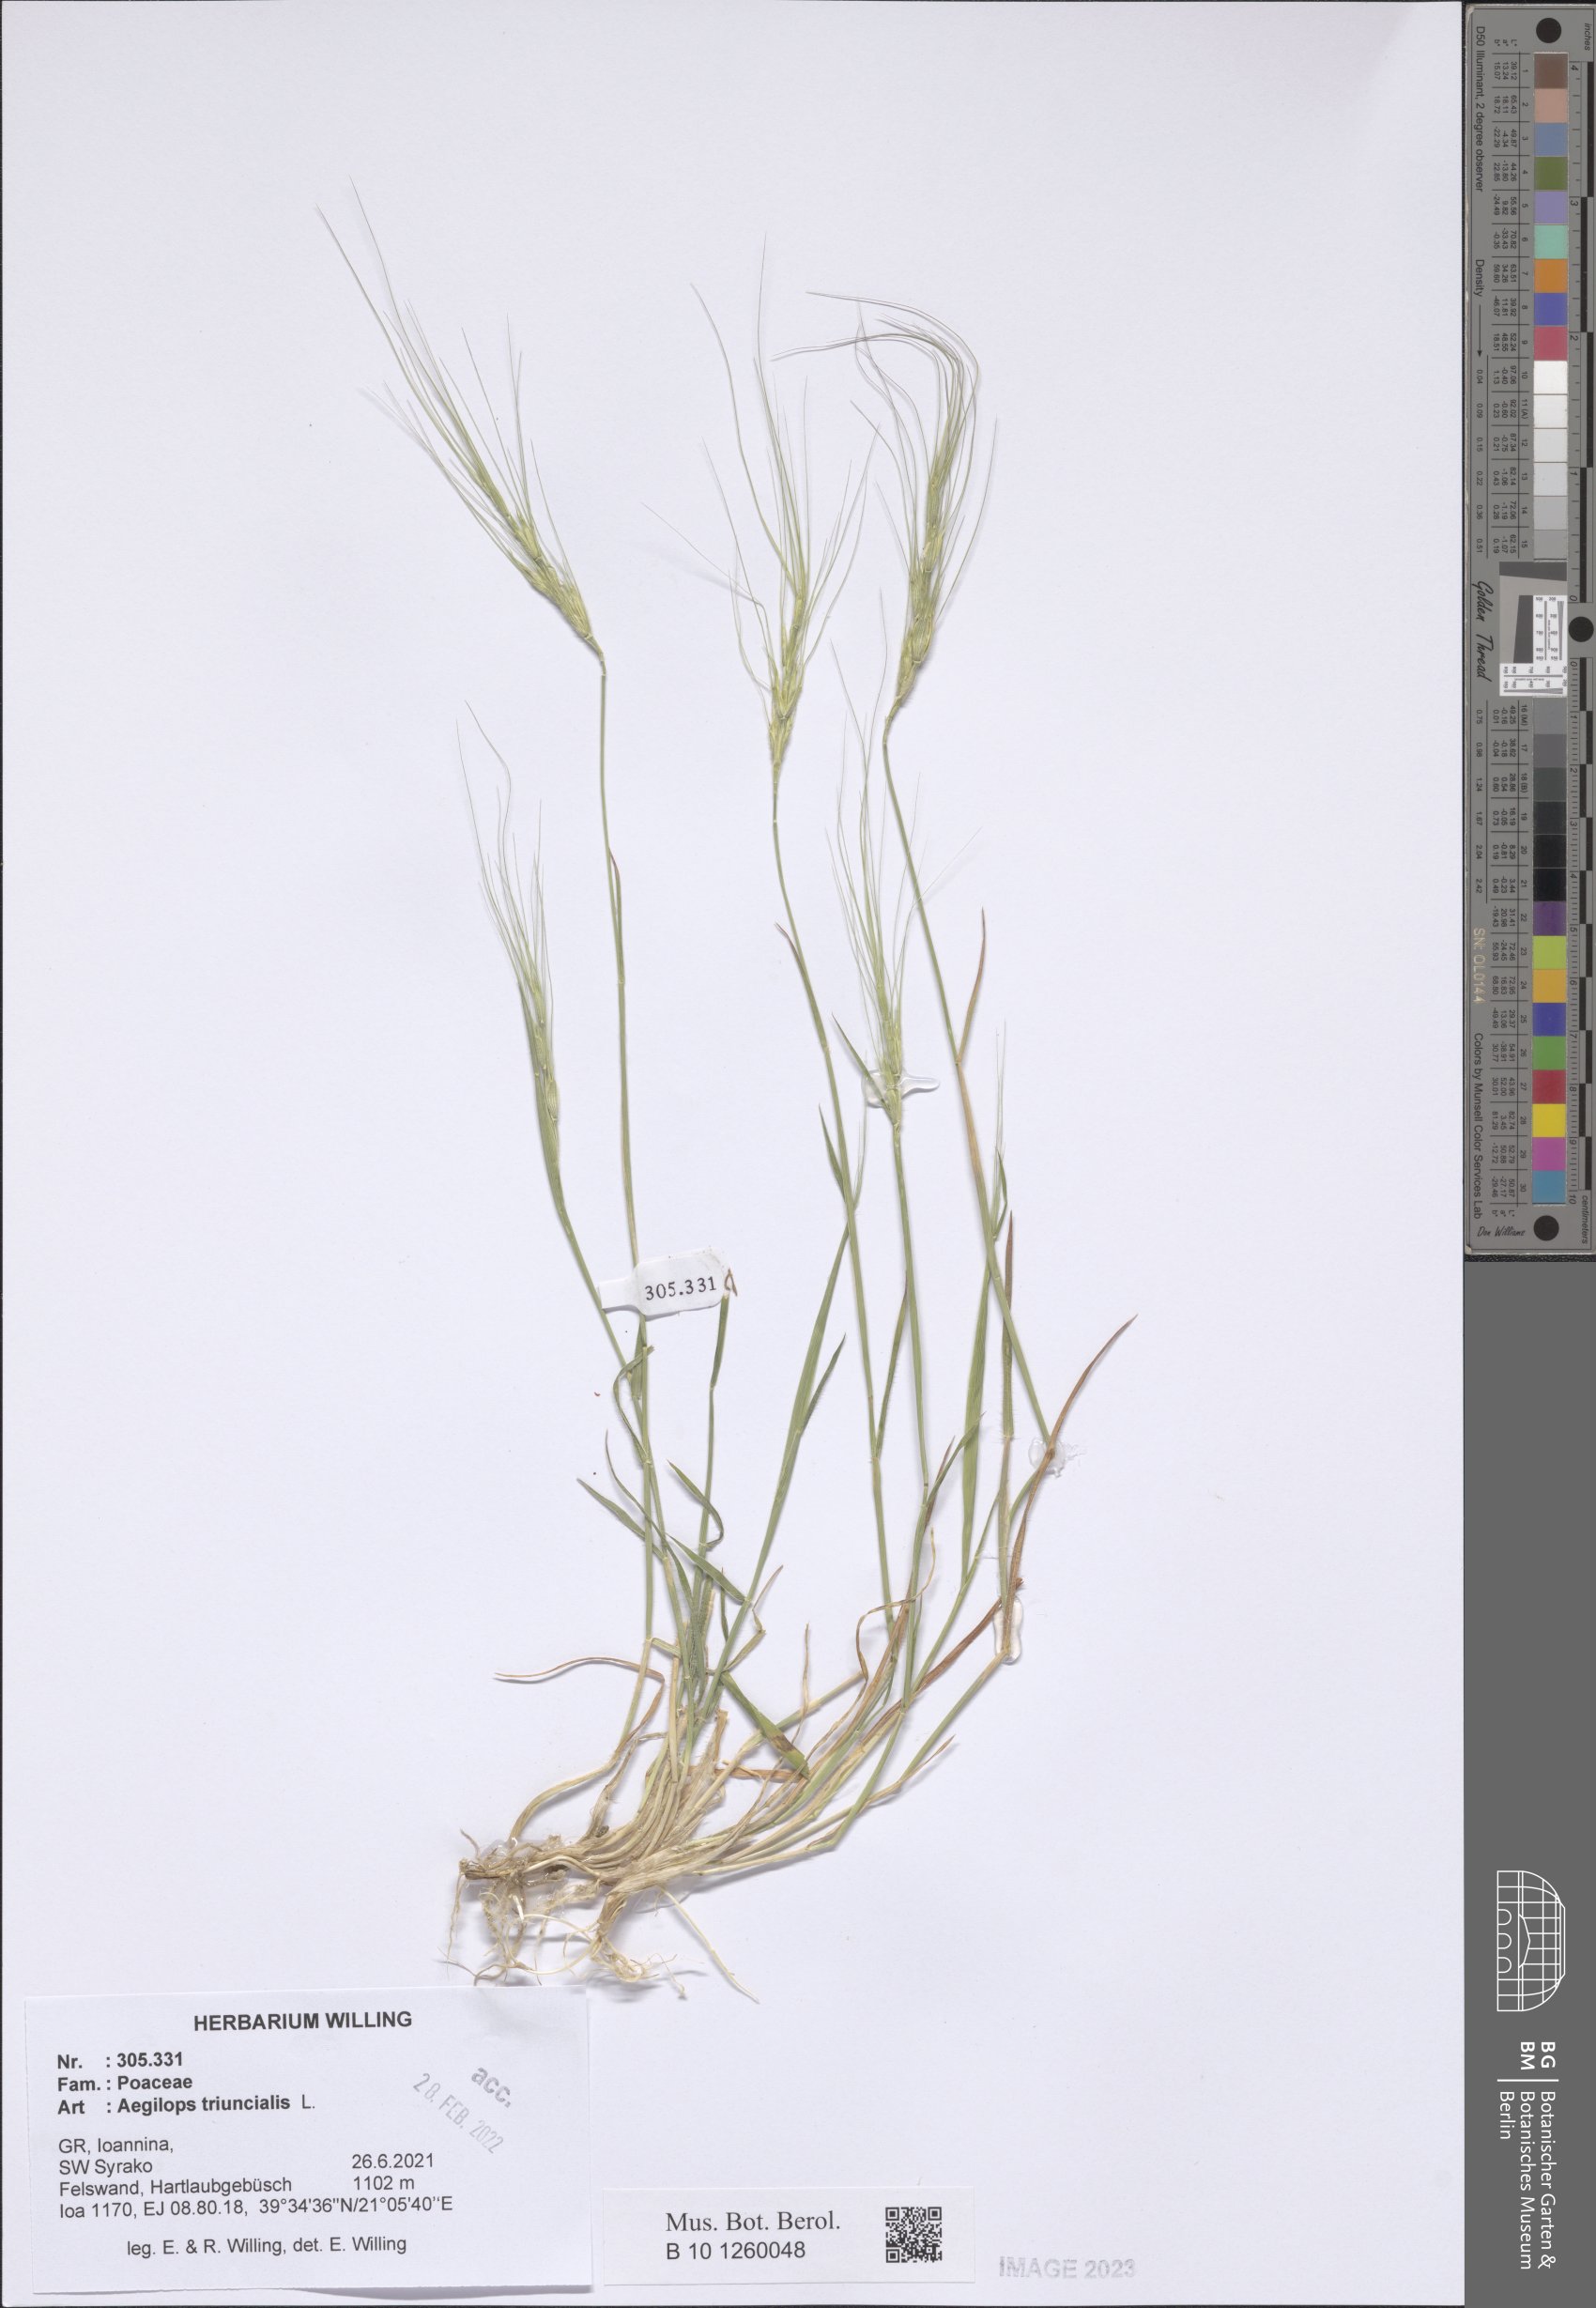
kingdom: Plantae
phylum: Tracheophyta
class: Liliopsida
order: Poales
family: Poaceae
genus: Aegilops
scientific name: Aegilops triuncialis
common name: Barb goat grass
